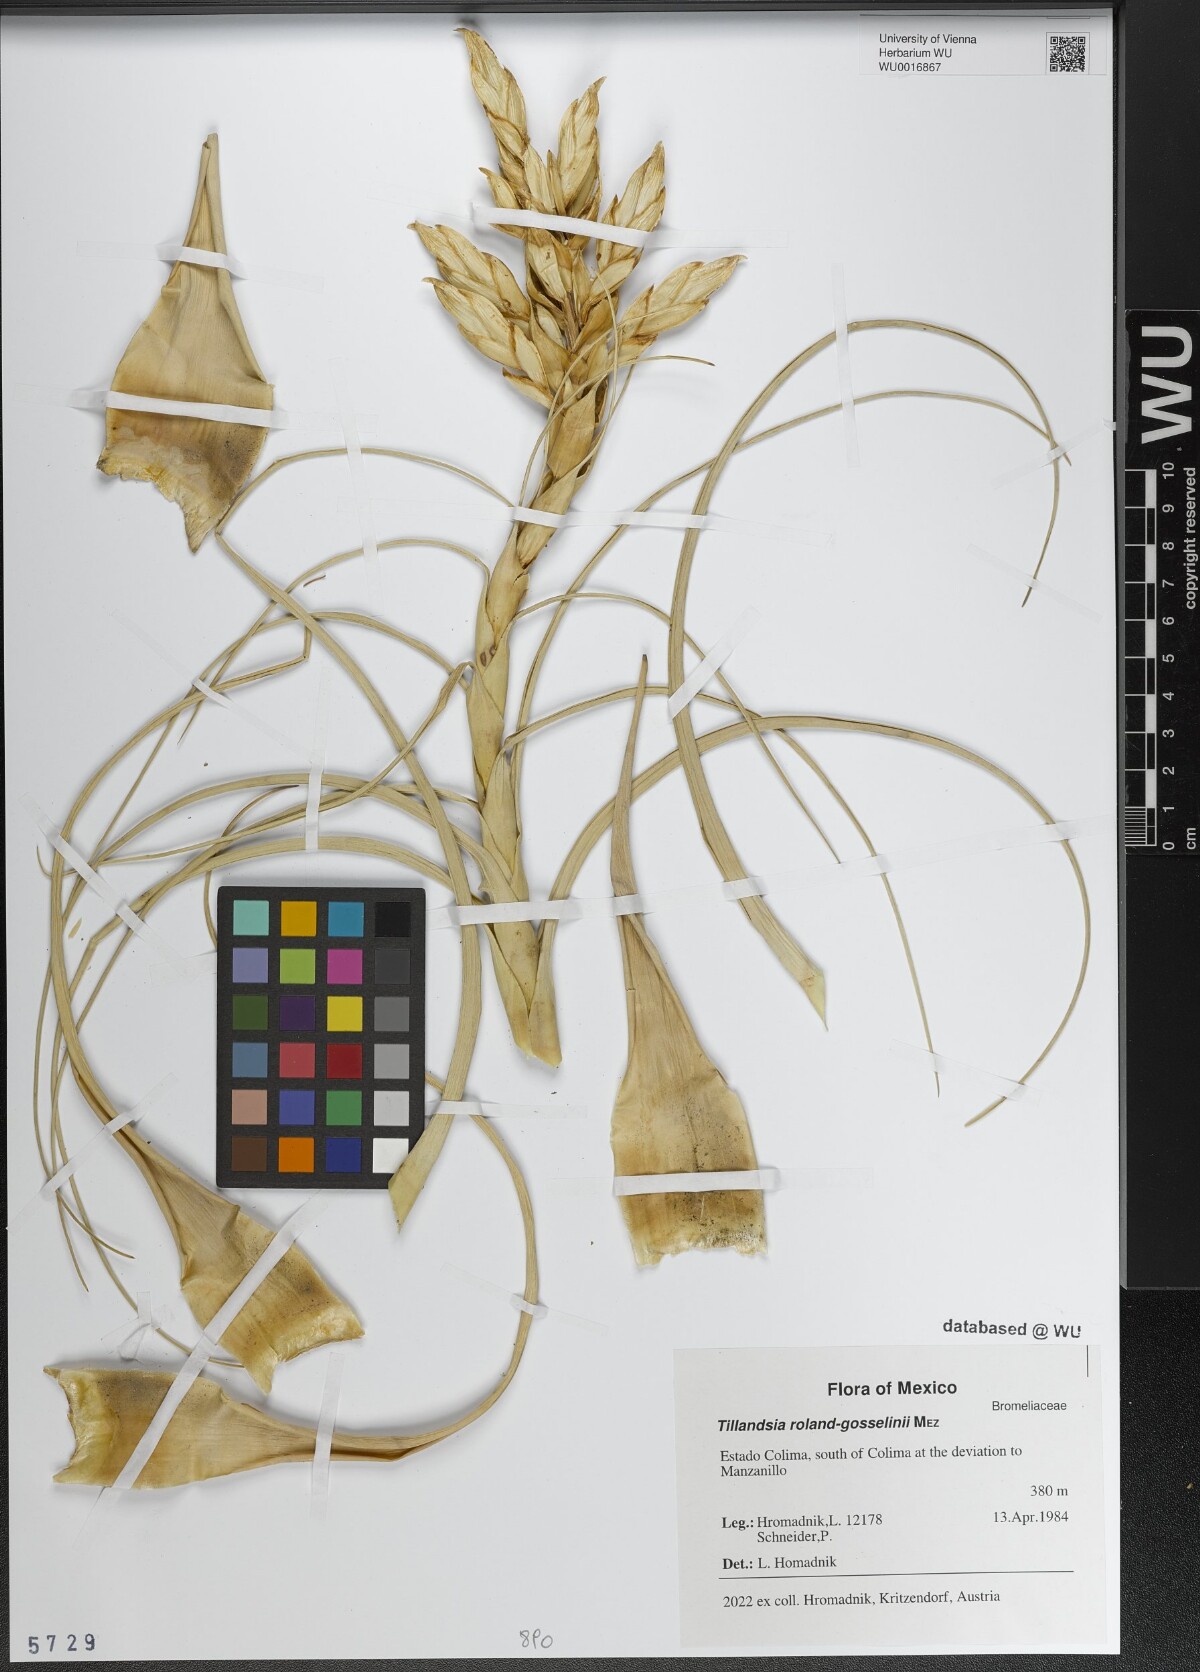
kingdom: Plantae
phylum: Tracheophyta
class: Liliopsida
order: Poales
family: Bromeliaceae
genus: Tillandsia
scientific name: Tillandsia roland-gosselinii
